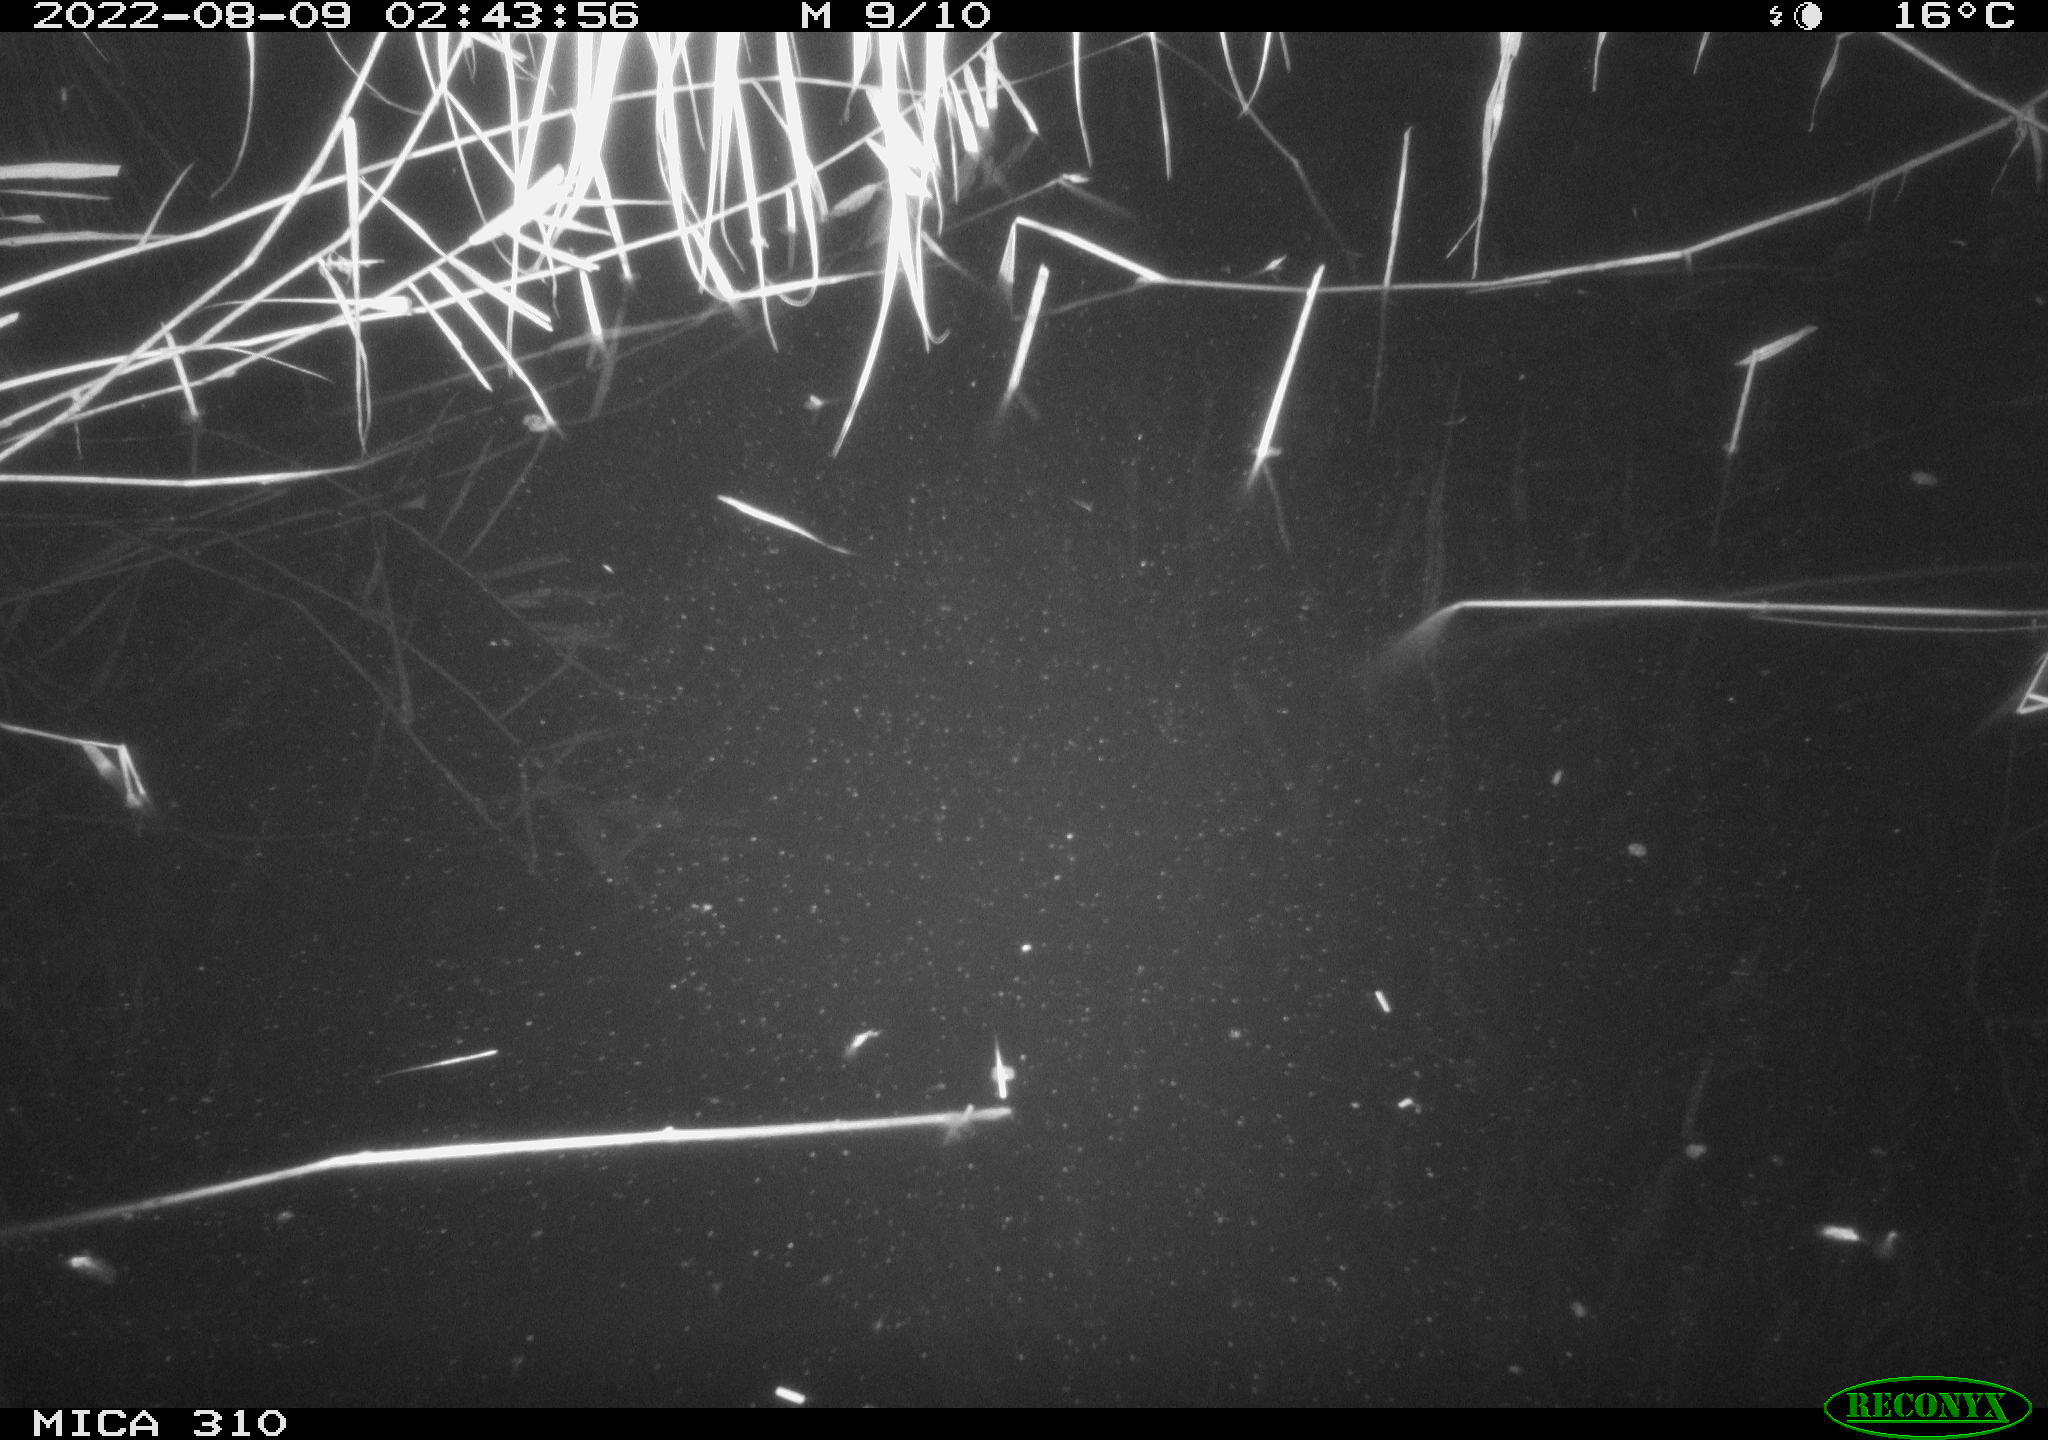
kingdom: Animalia
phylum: Chordata
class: Mammalia
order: Rodentia
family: Muridae
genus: Rattus
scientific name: Rattus norvegicus
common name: Brown rat
